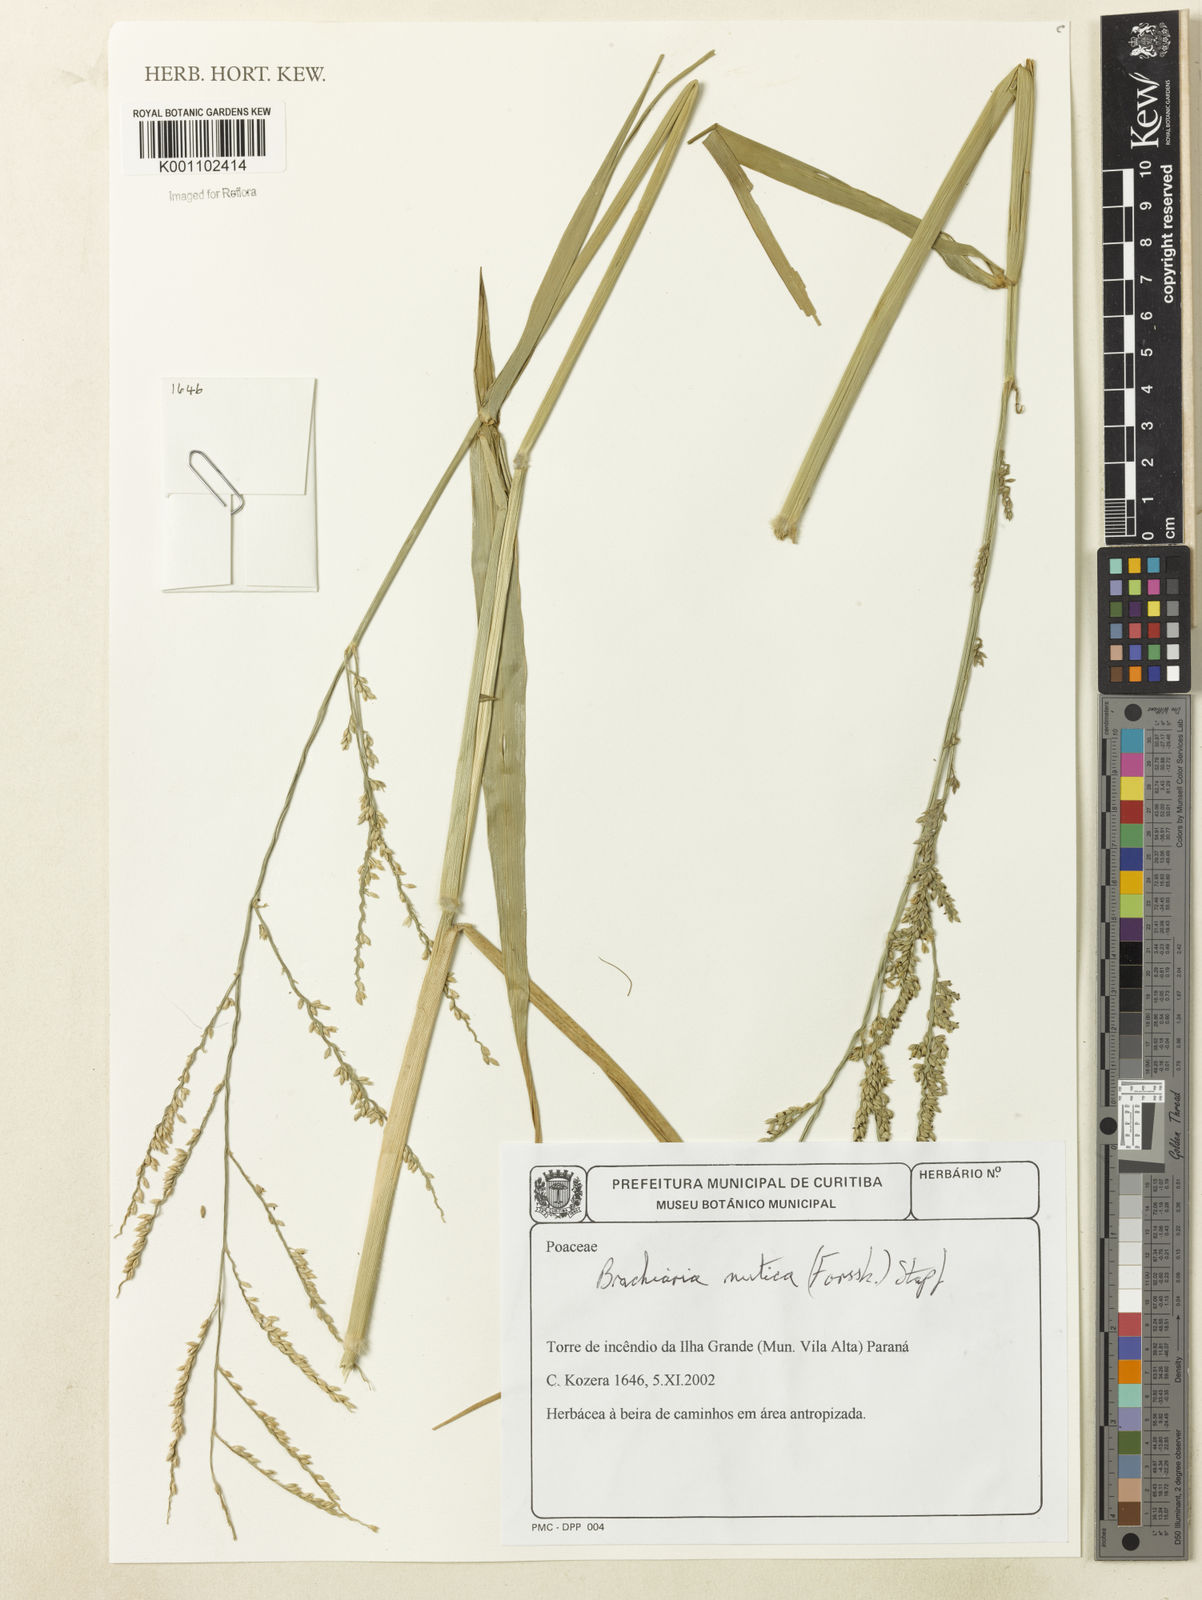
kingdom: Plantae
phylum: Tracheophyta
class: Liliopsida
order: Poales
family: Poaceae
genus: Urochloa
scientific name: Urochloa mutica
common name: Para grass
